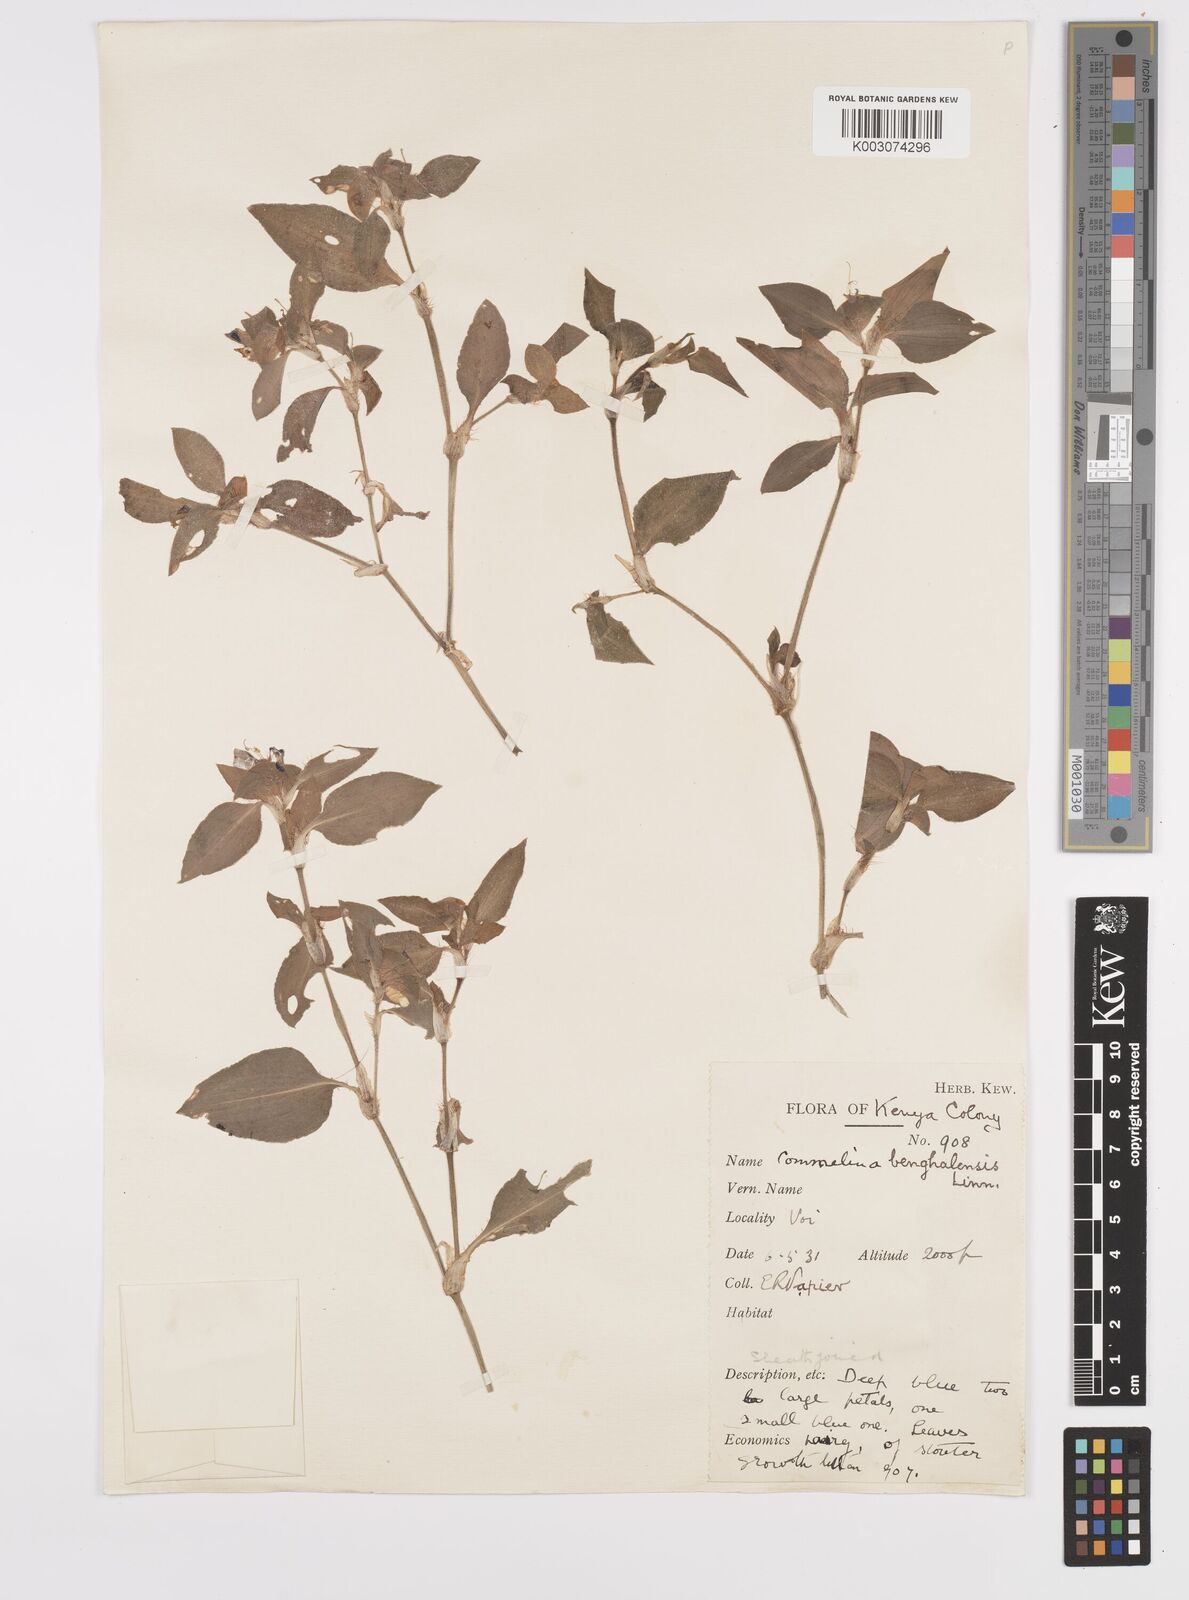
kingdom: Plantae
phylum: Tracheophyta
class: Liliopsida
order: Commelinales
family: Commelinaceae
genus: Commelina
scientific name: Commelina benghalensis
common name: Jio
